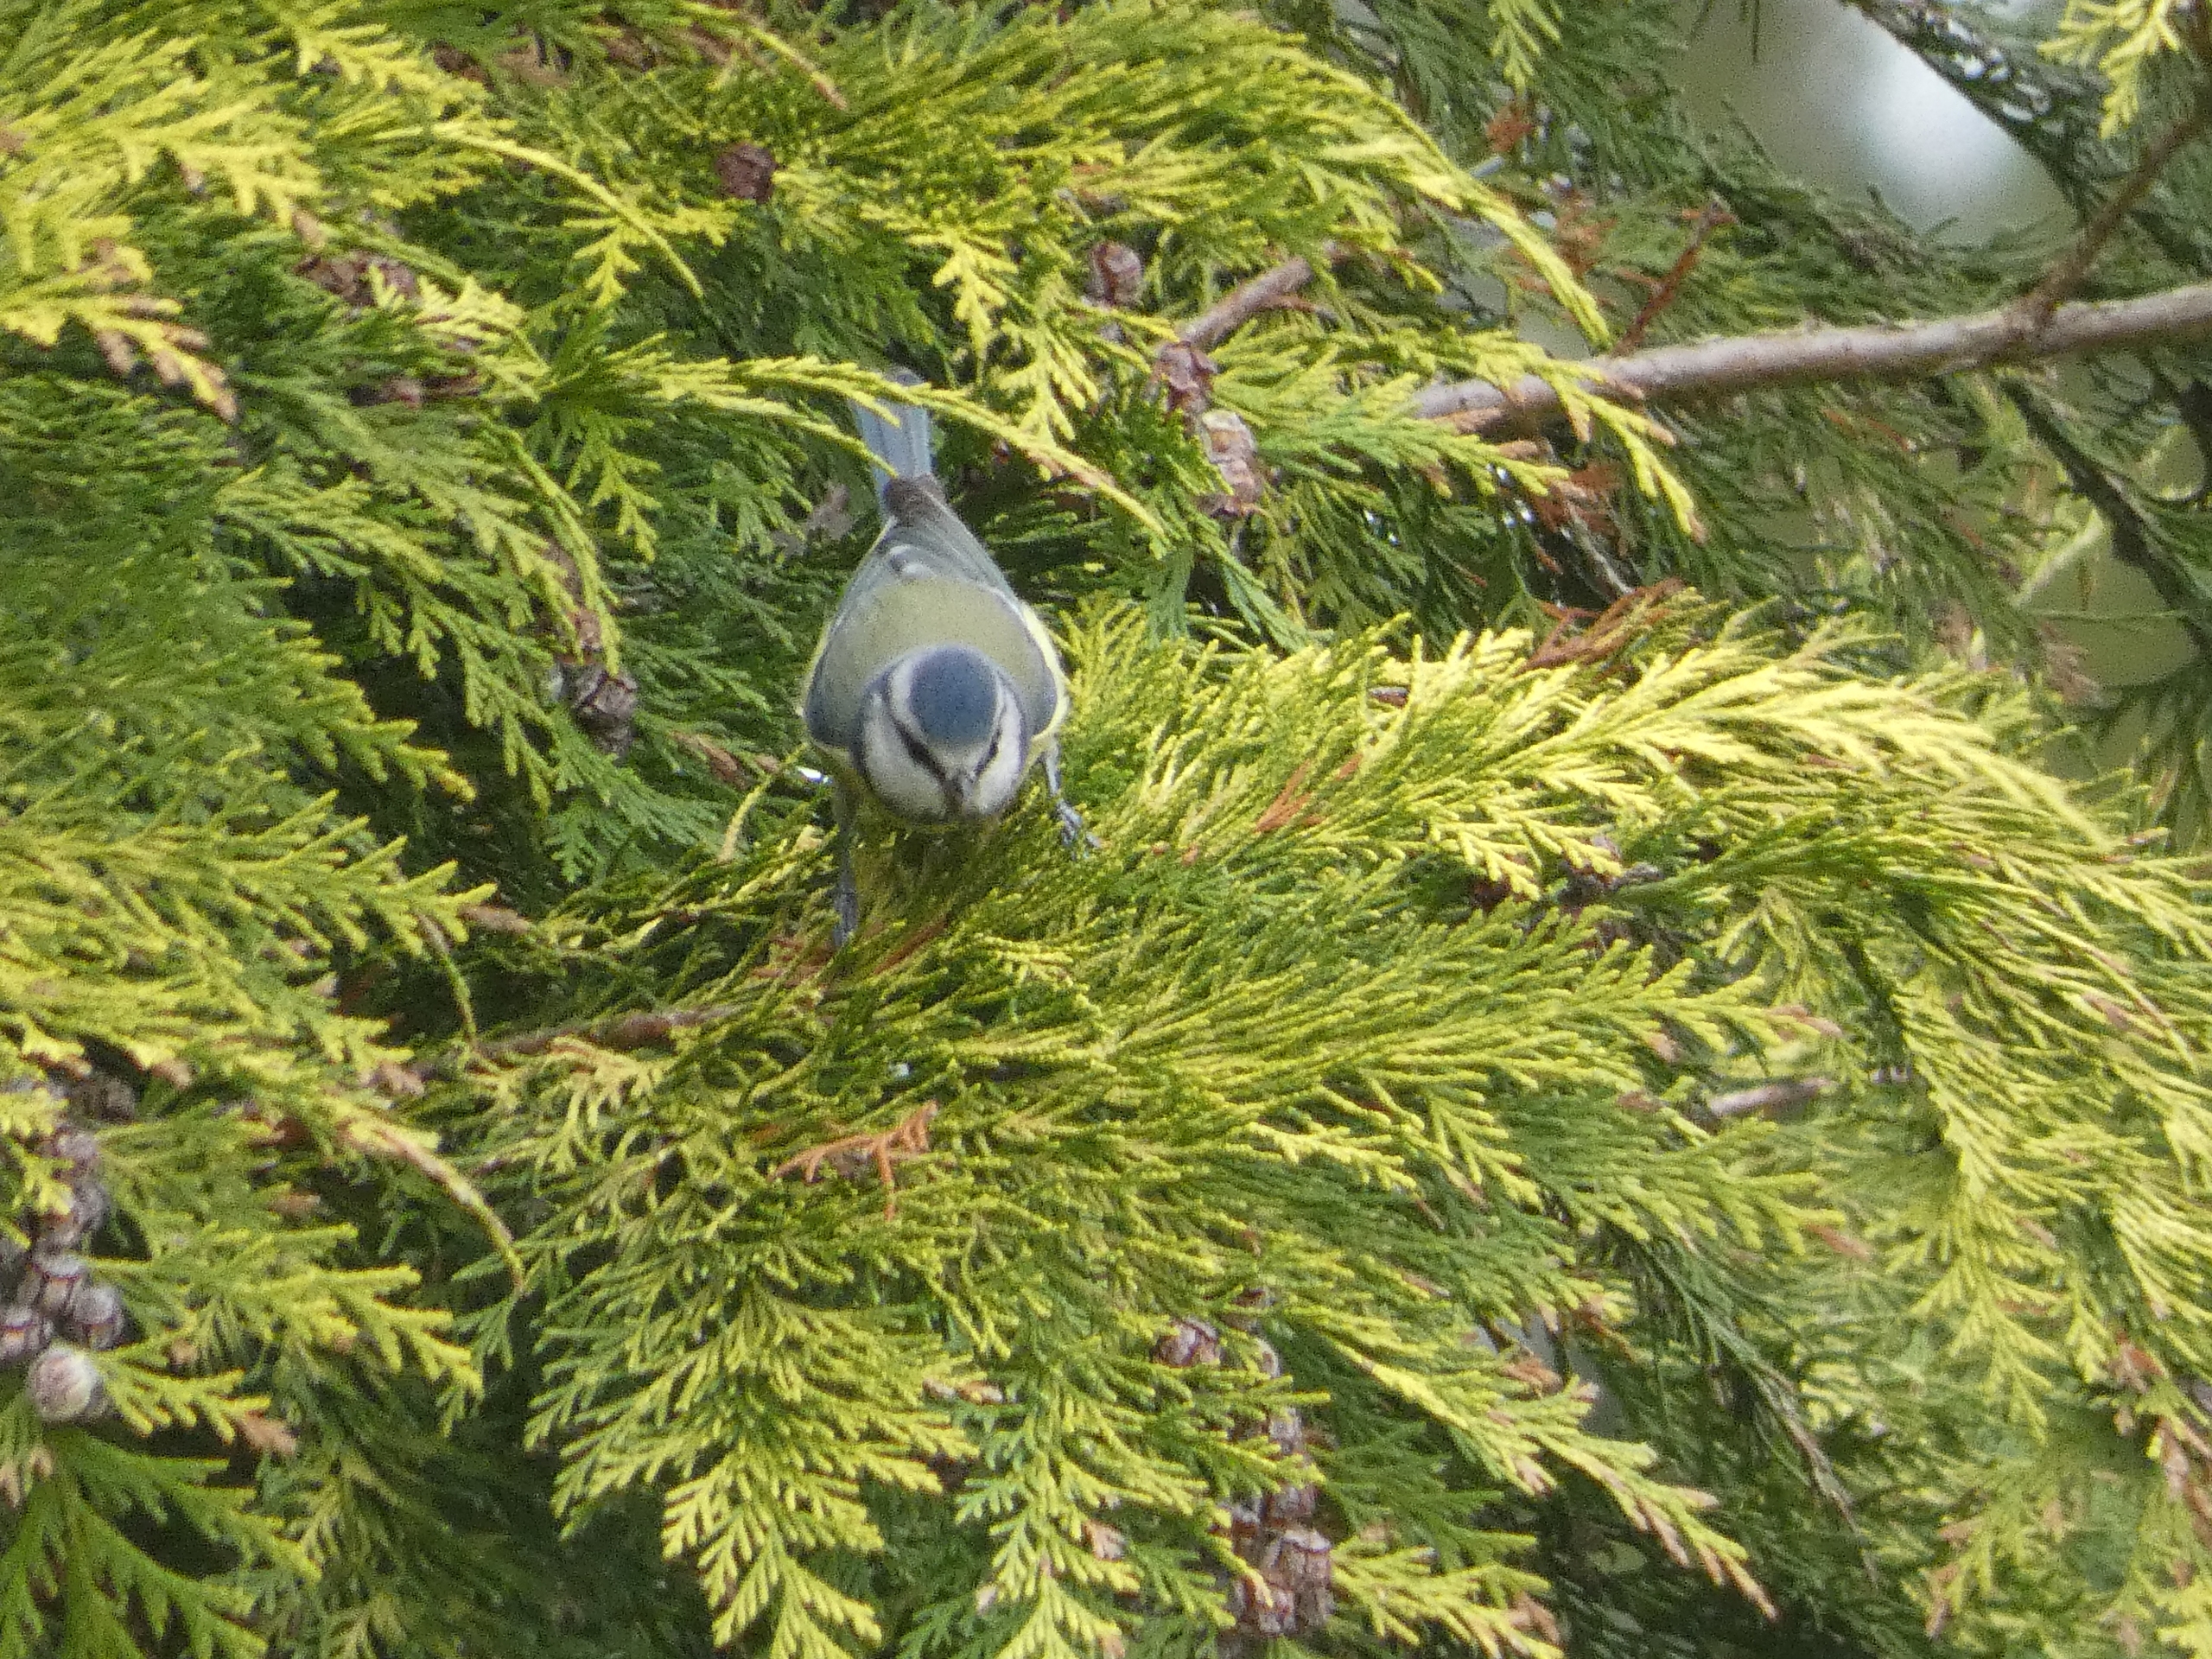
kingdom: Animalia
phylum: Chordata
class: Aves
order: Passeriformes
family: Paridae
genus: Cyanistes
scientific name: Cyanistes caeruleus
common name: Blåmejse
